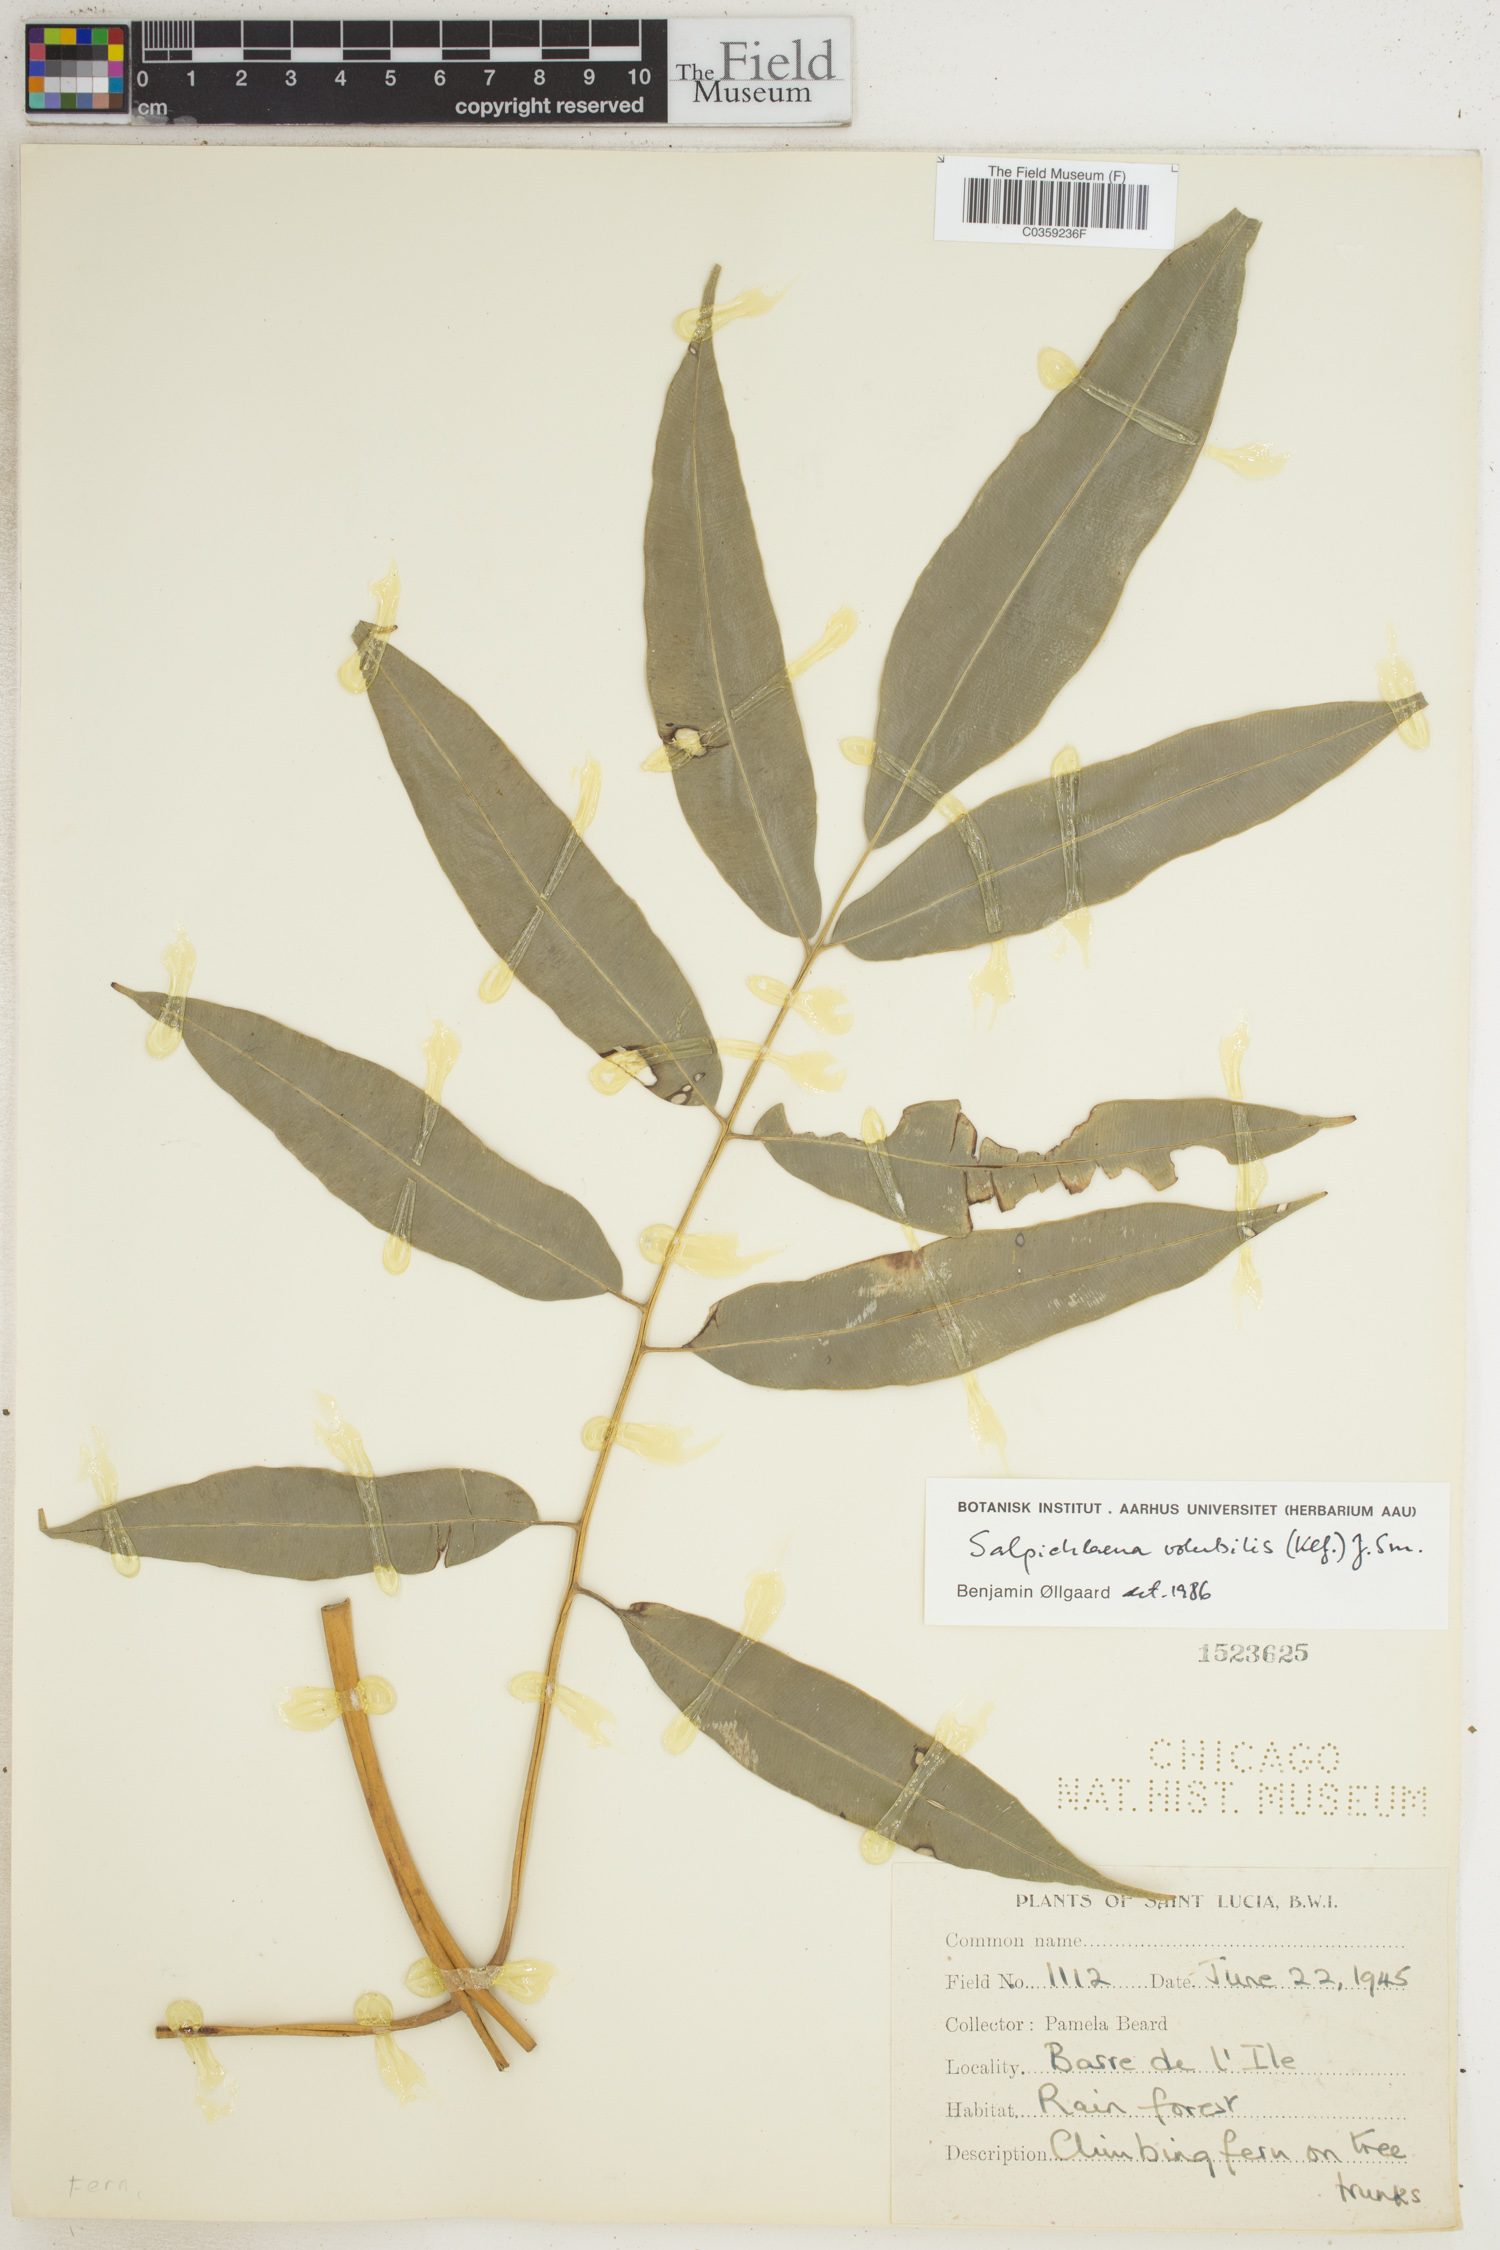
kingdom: Plantae
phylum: Tracheophyta
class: Polypodiopsida
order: Polypodiales
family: Blechnaceae
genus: Salpichlaena
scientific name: Salpichlaena volubilis
